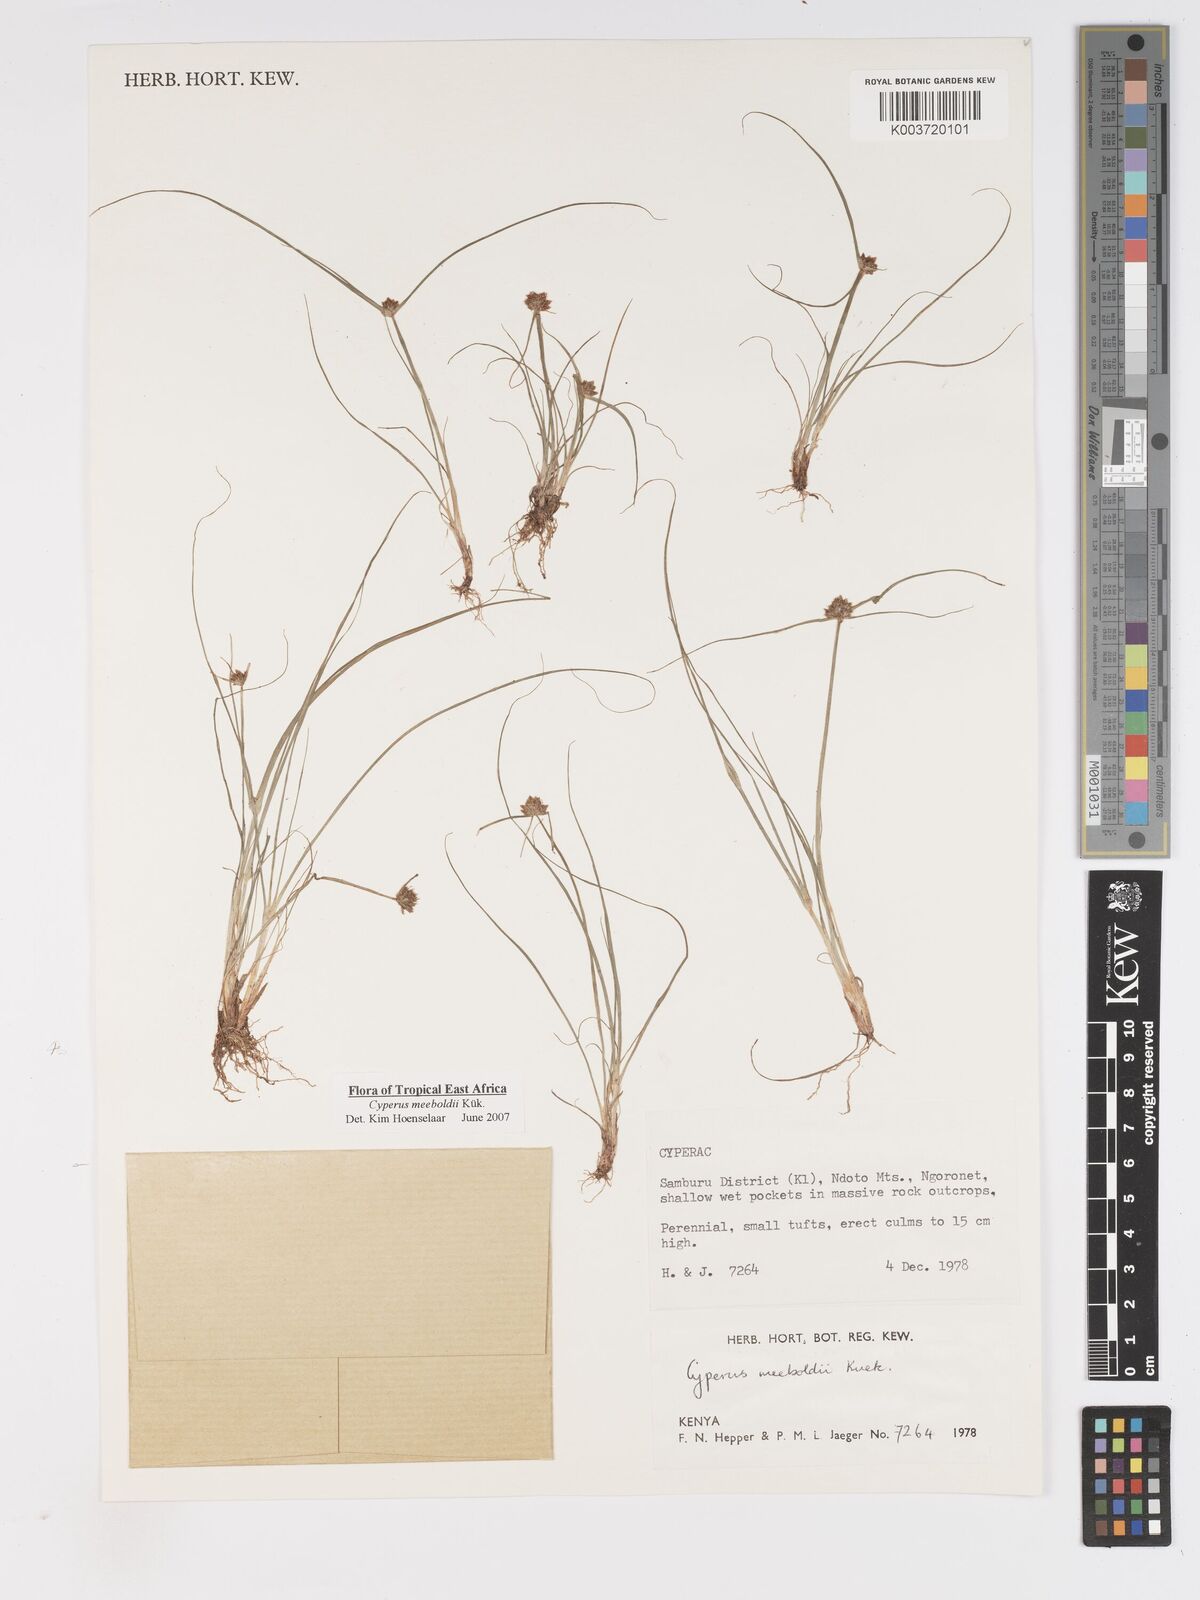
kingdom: Plantae
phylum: Tracheophyta
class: Liliopsida
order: Poales
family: Cyperaceae
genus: Cyperus
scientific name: Cyperus meeboldii
